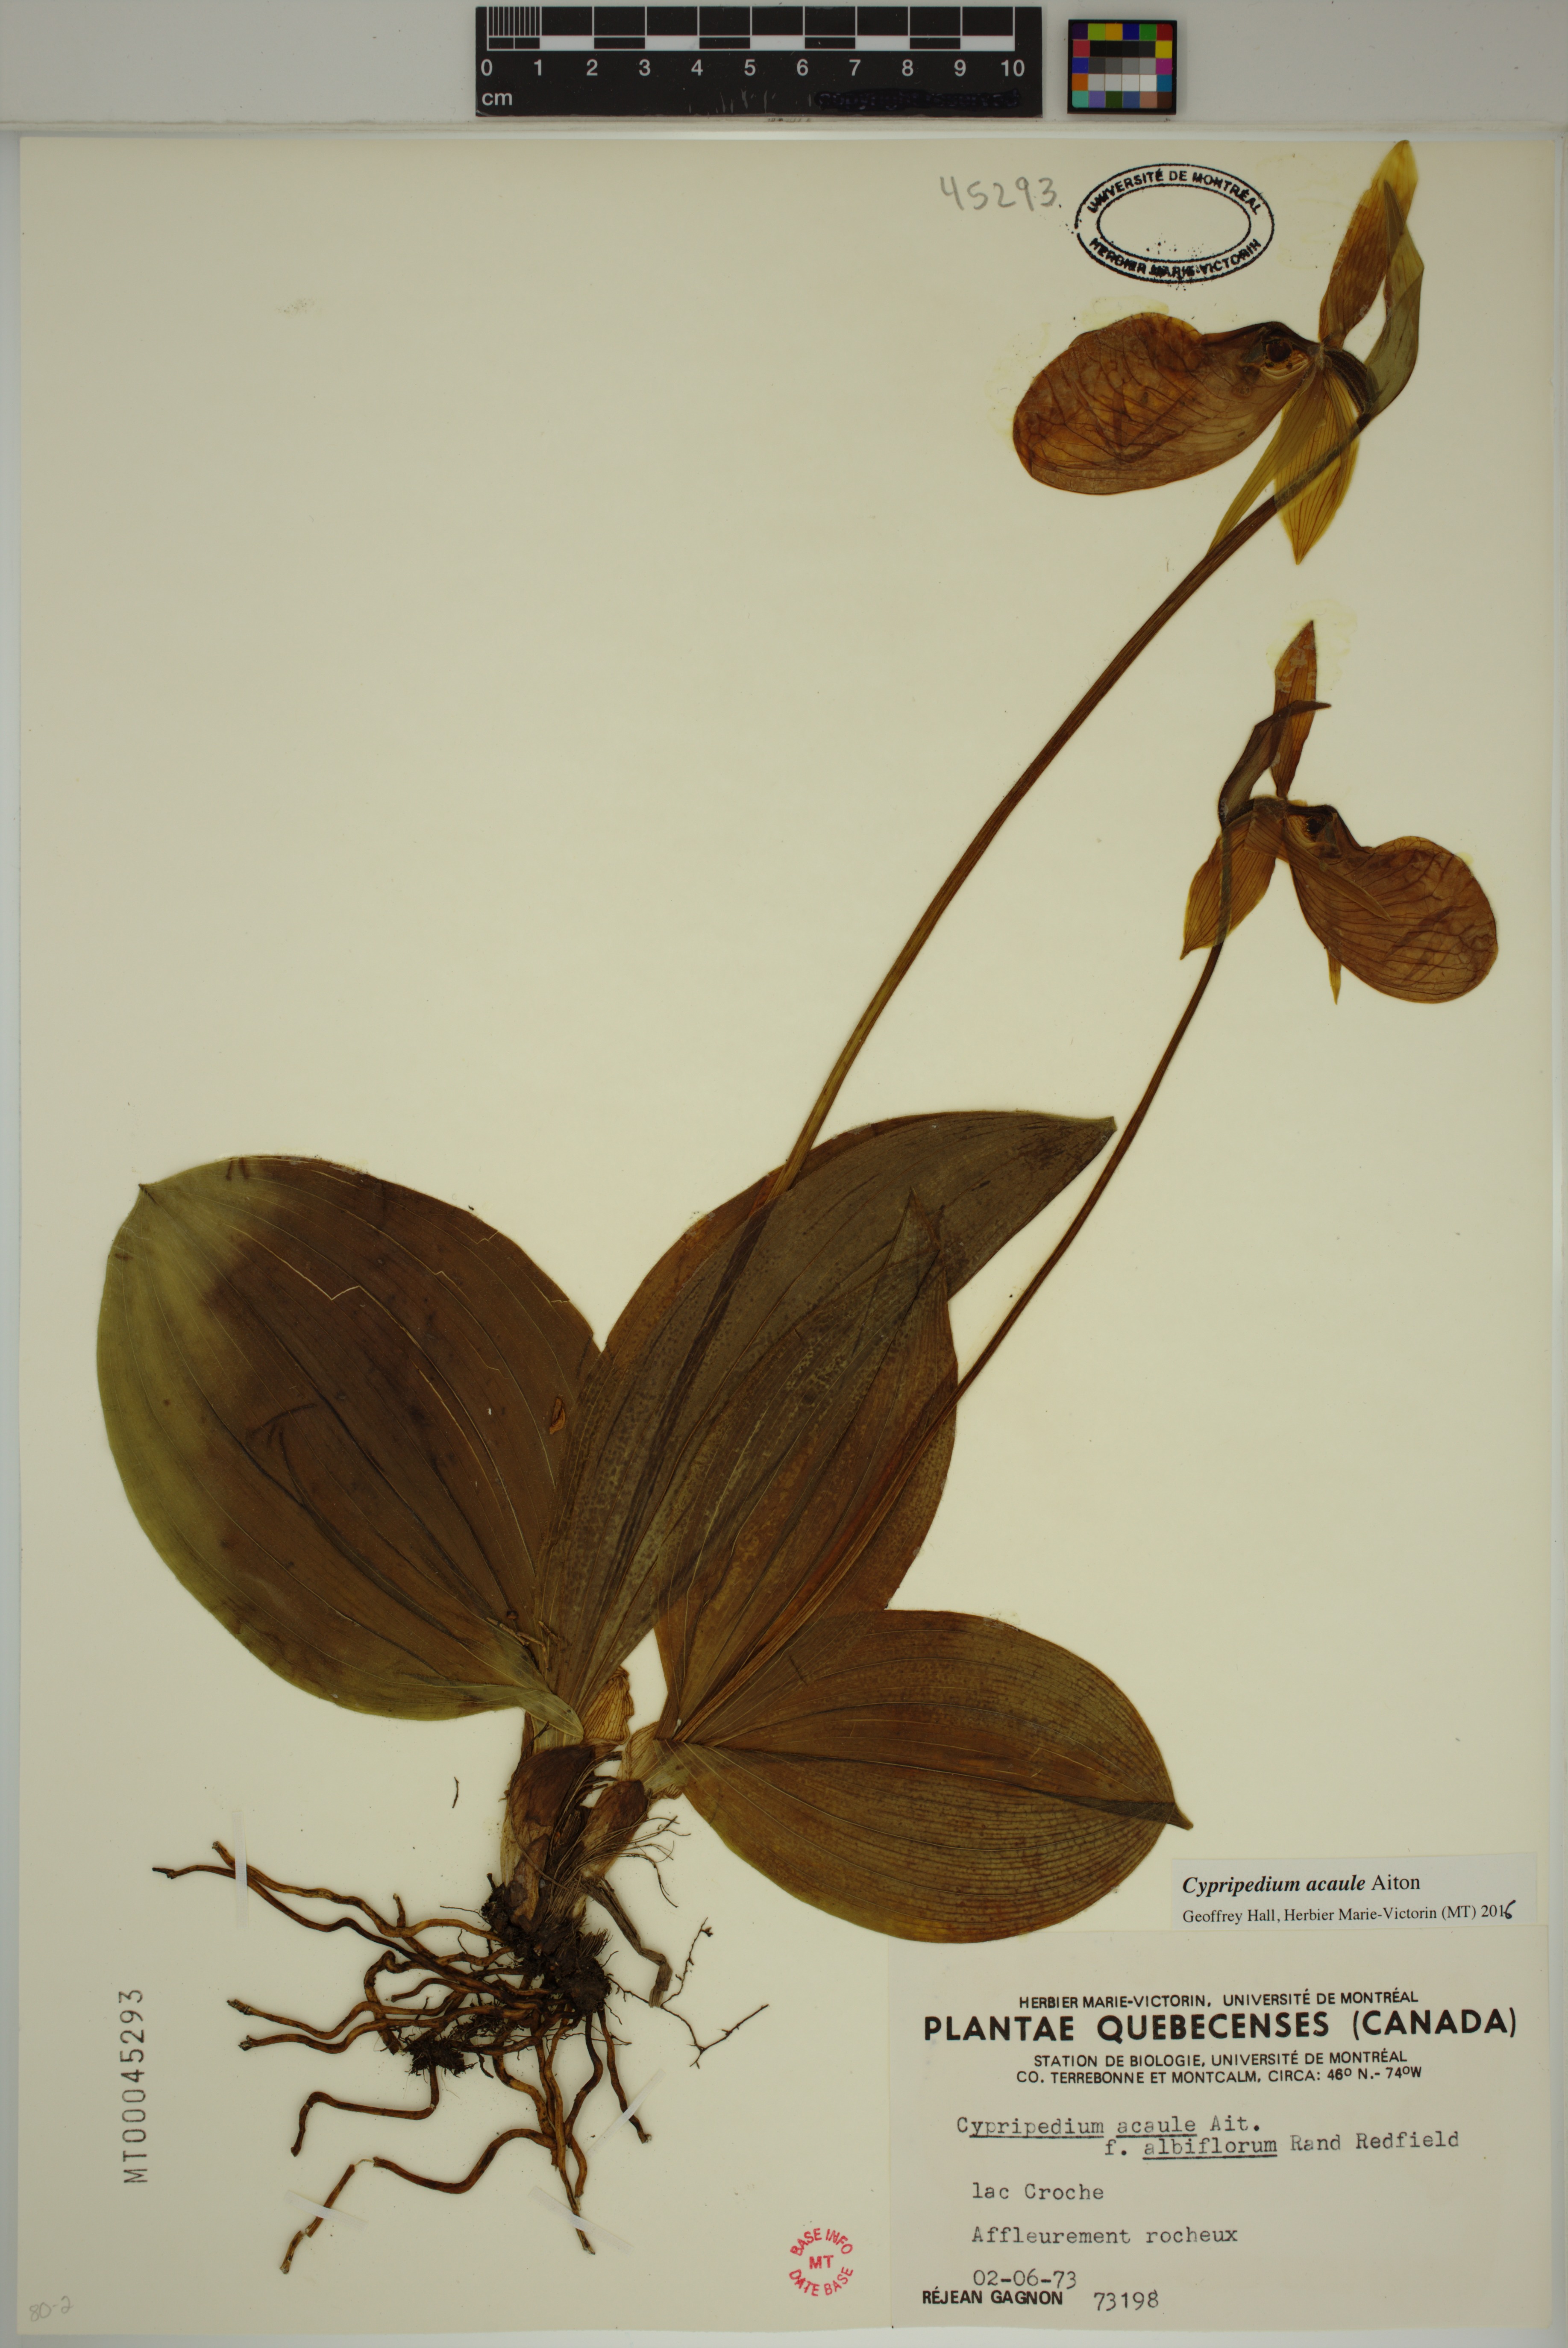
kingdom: Plantae
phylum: Tracheophyta
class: Liliopsida
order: Asparagales
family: Orchidaceae
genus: Cypripedium
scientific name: Cypripedium acaule
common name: Pink lady's-slipper
